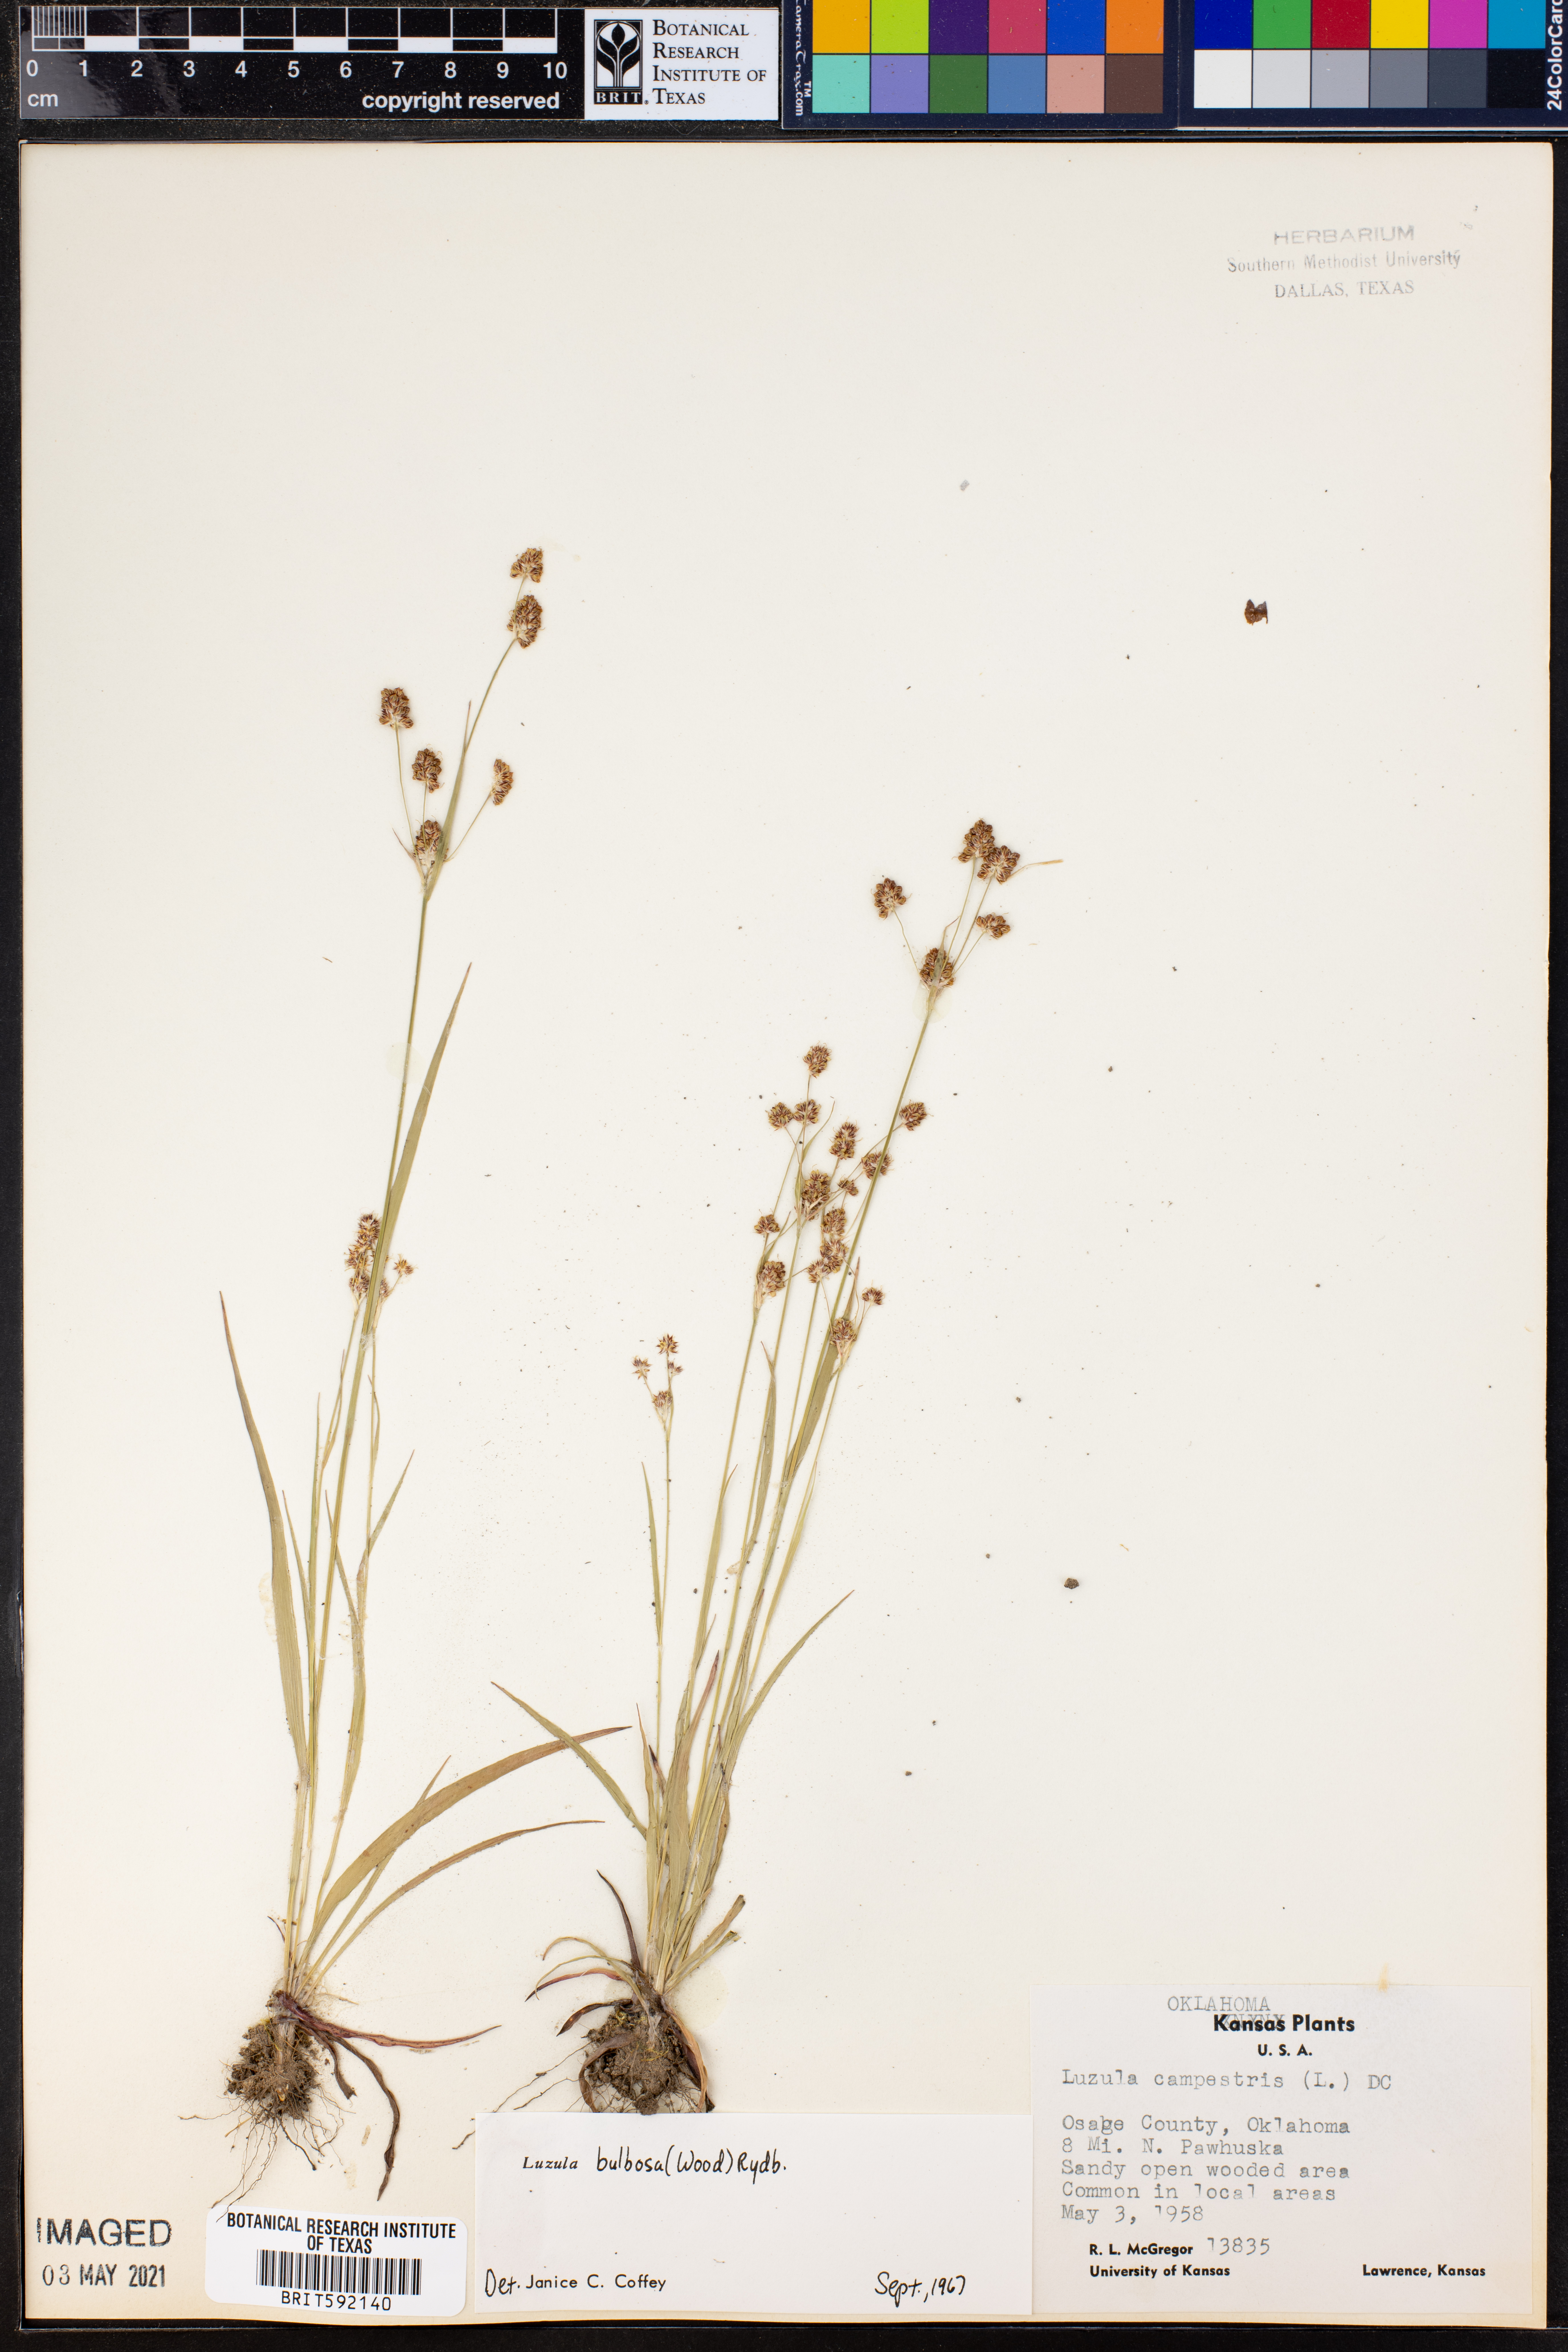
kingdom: Plantae
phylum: Tracheophyta
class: Liliopsida
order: Poales
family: Juncaceae
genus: Luzula
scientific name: Luzula bulbosa
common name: Bulbous woodrush
